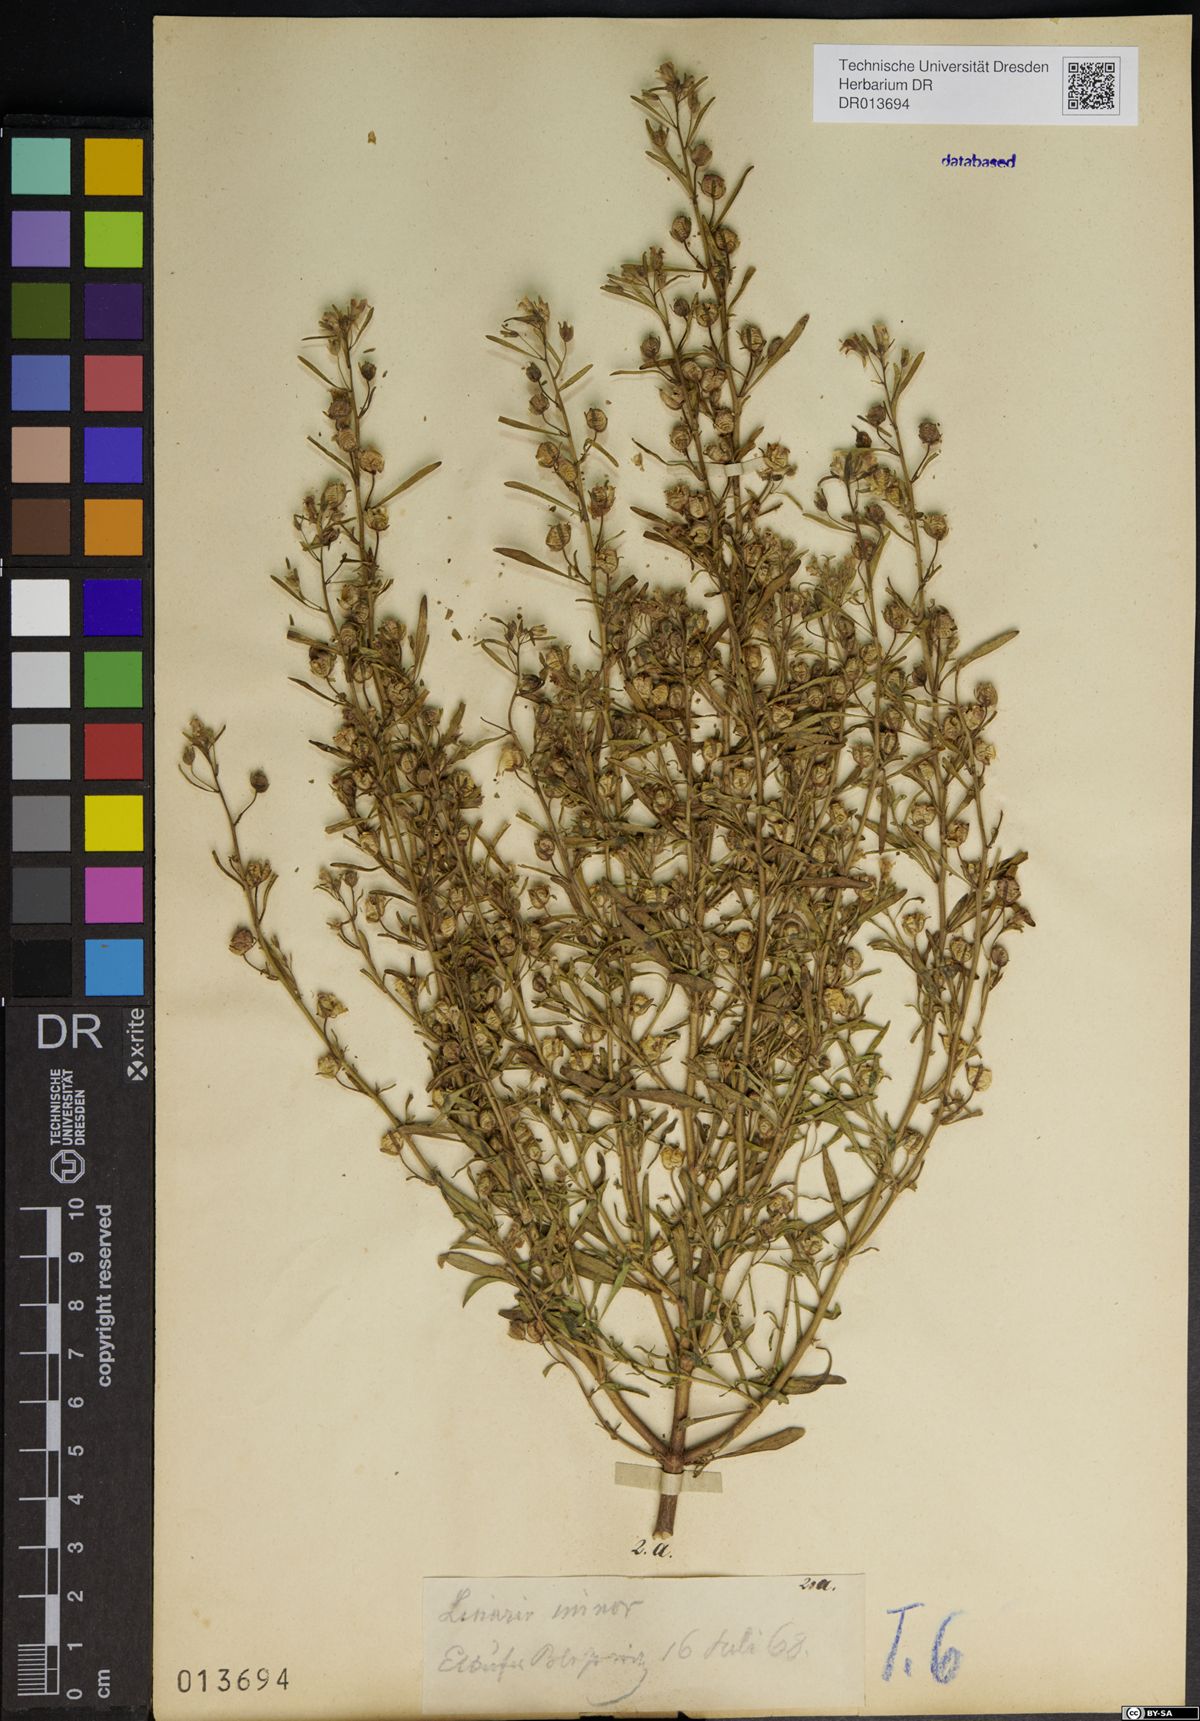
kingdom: Plantae
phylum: Tracheophyta
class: Magnoliopsida
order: Lamiales
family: Plantaginaceae
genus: Chaenorhinum
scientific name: Chaenorhinum minus
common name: Dwarf snapdragon
